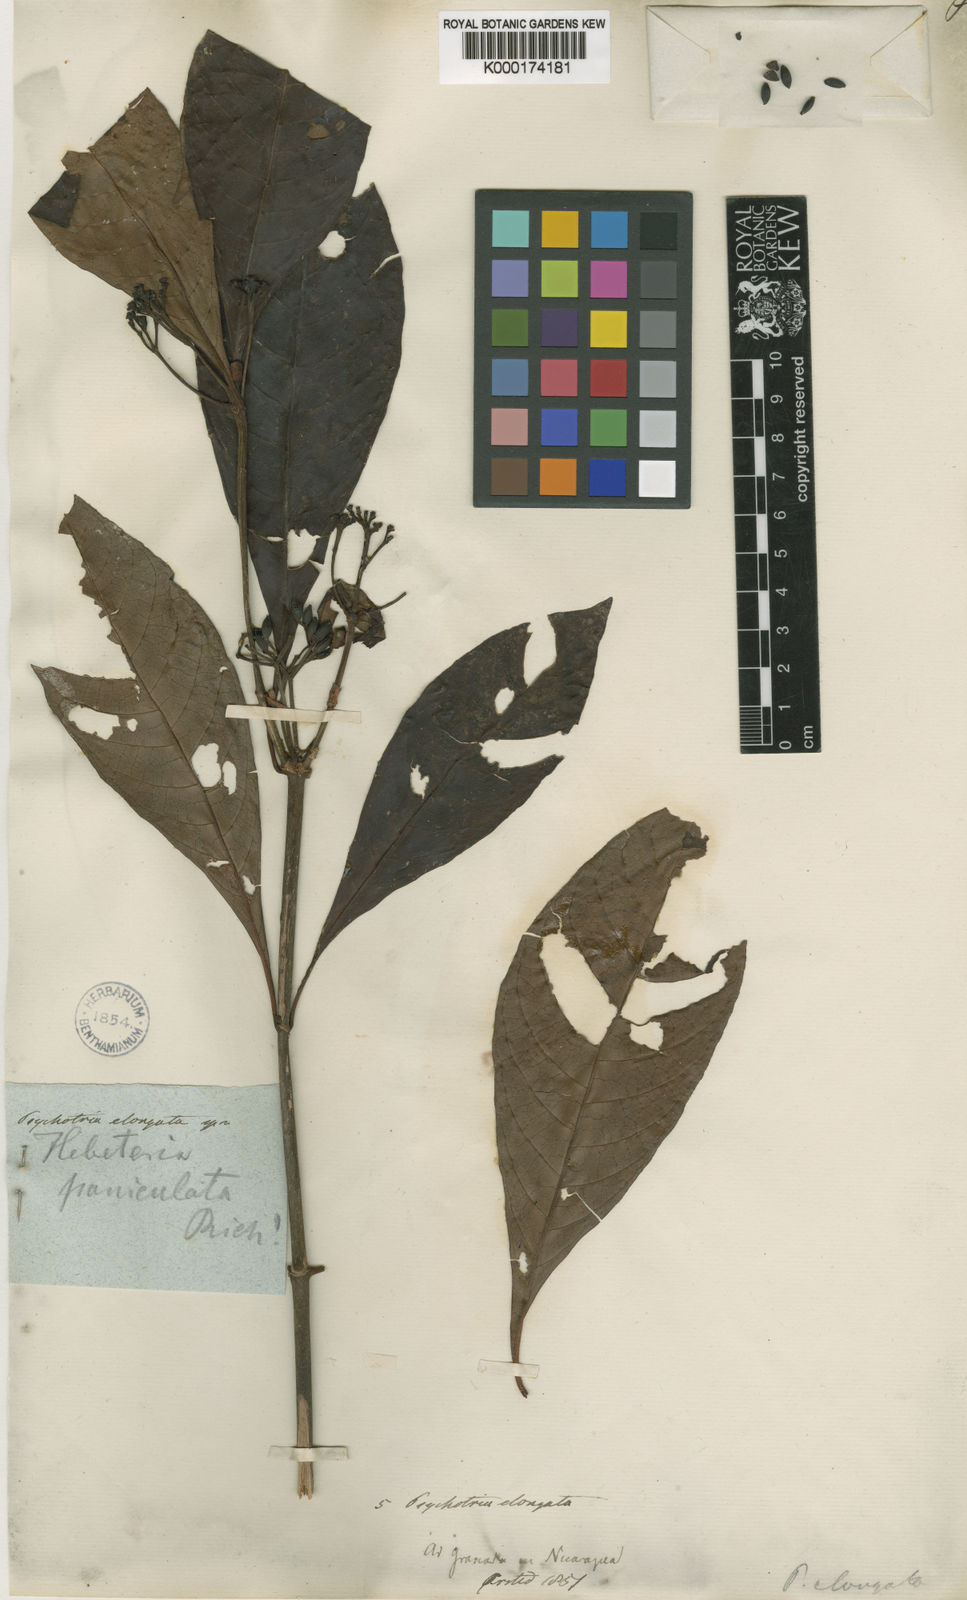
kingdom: Plantae
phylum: Tracheophyta
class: Magnoliopsida
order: Gentianales
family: Rubiaceae
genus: Psychotria
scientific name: Psychotria nervosa
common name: Bastard cankerberry
